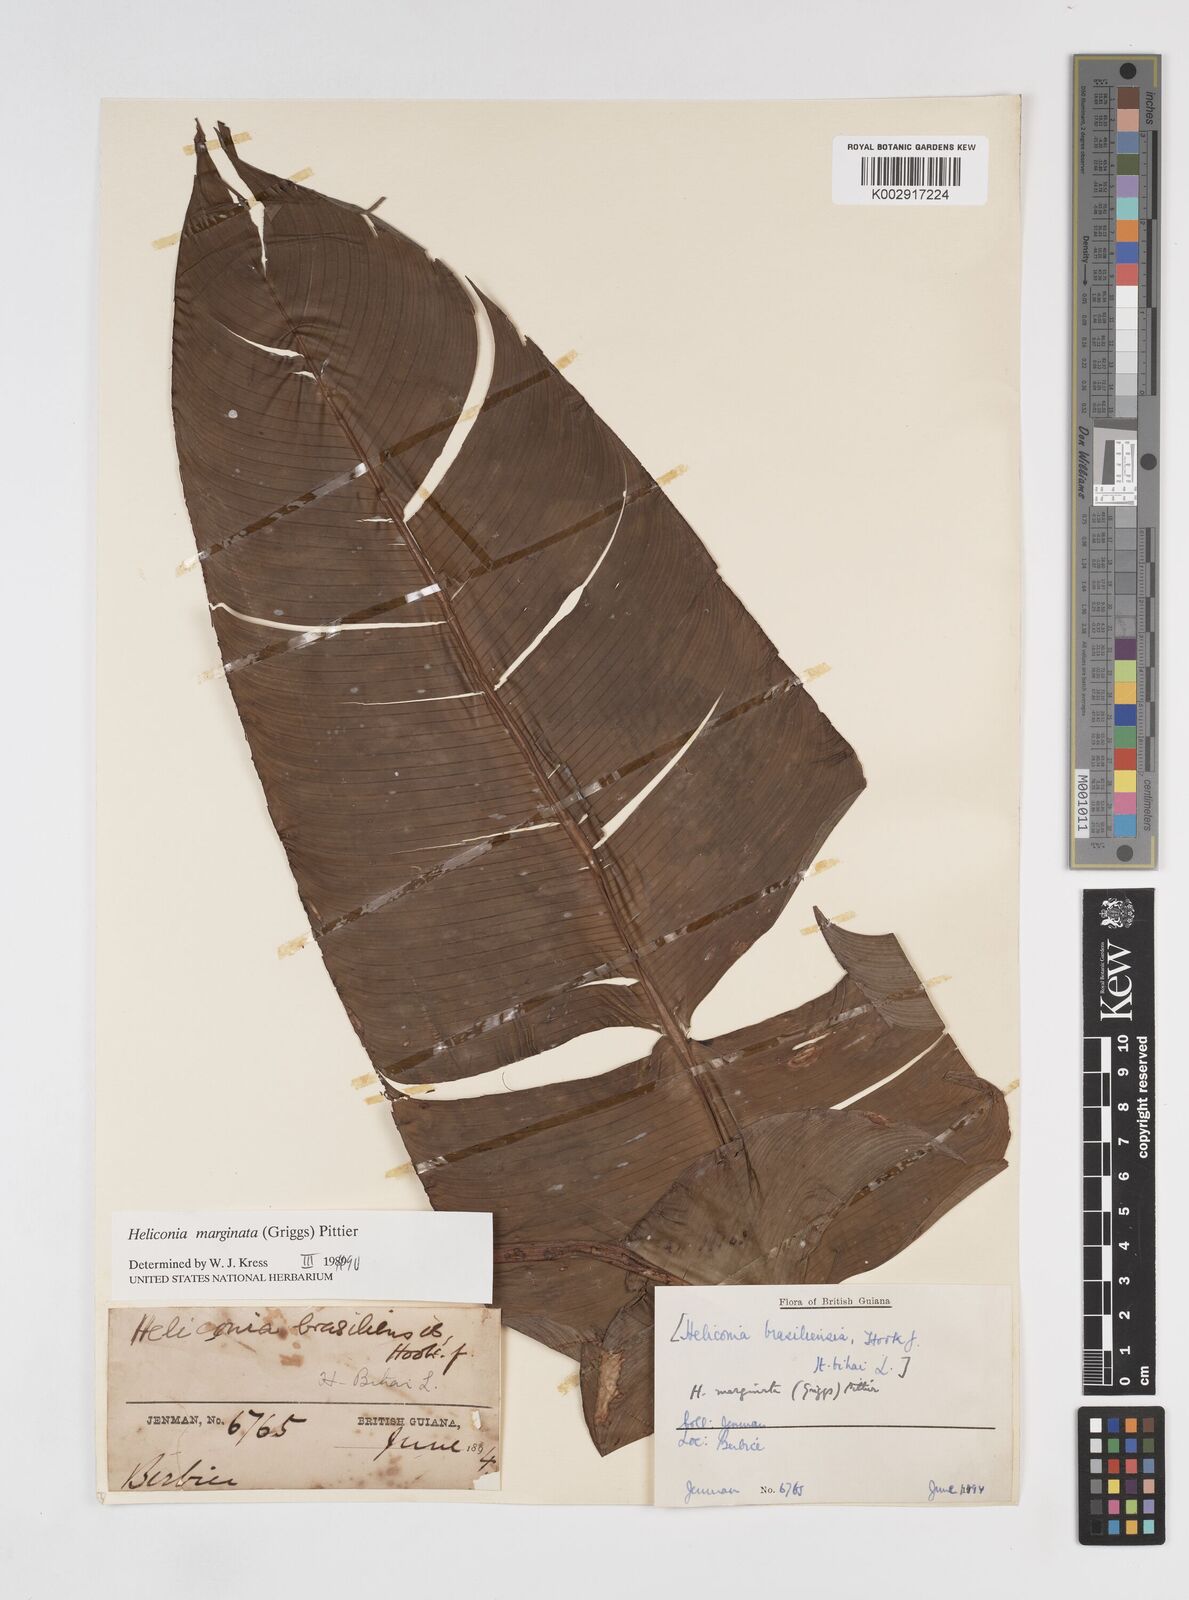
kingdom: Plantae
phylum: Tracheophyta
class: Liliopsida
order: Zingiberales
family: Heliconiaceae
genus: Heliconia
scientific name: Heliconia marginata
